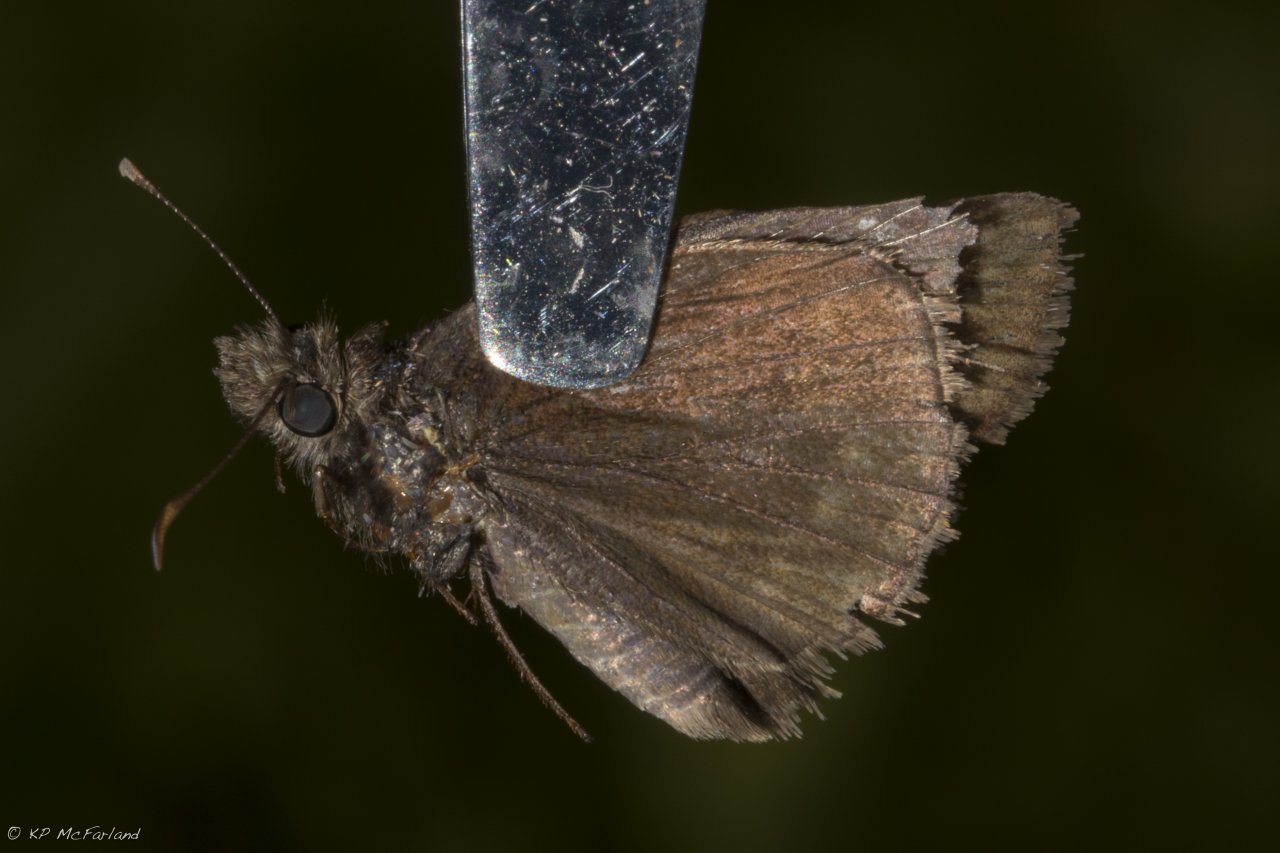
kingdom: Animalia
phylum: Arthropoda
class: Insecta
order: Lepidoptera
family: Hesperiidae
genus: Euphyes
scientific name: Euphyes
